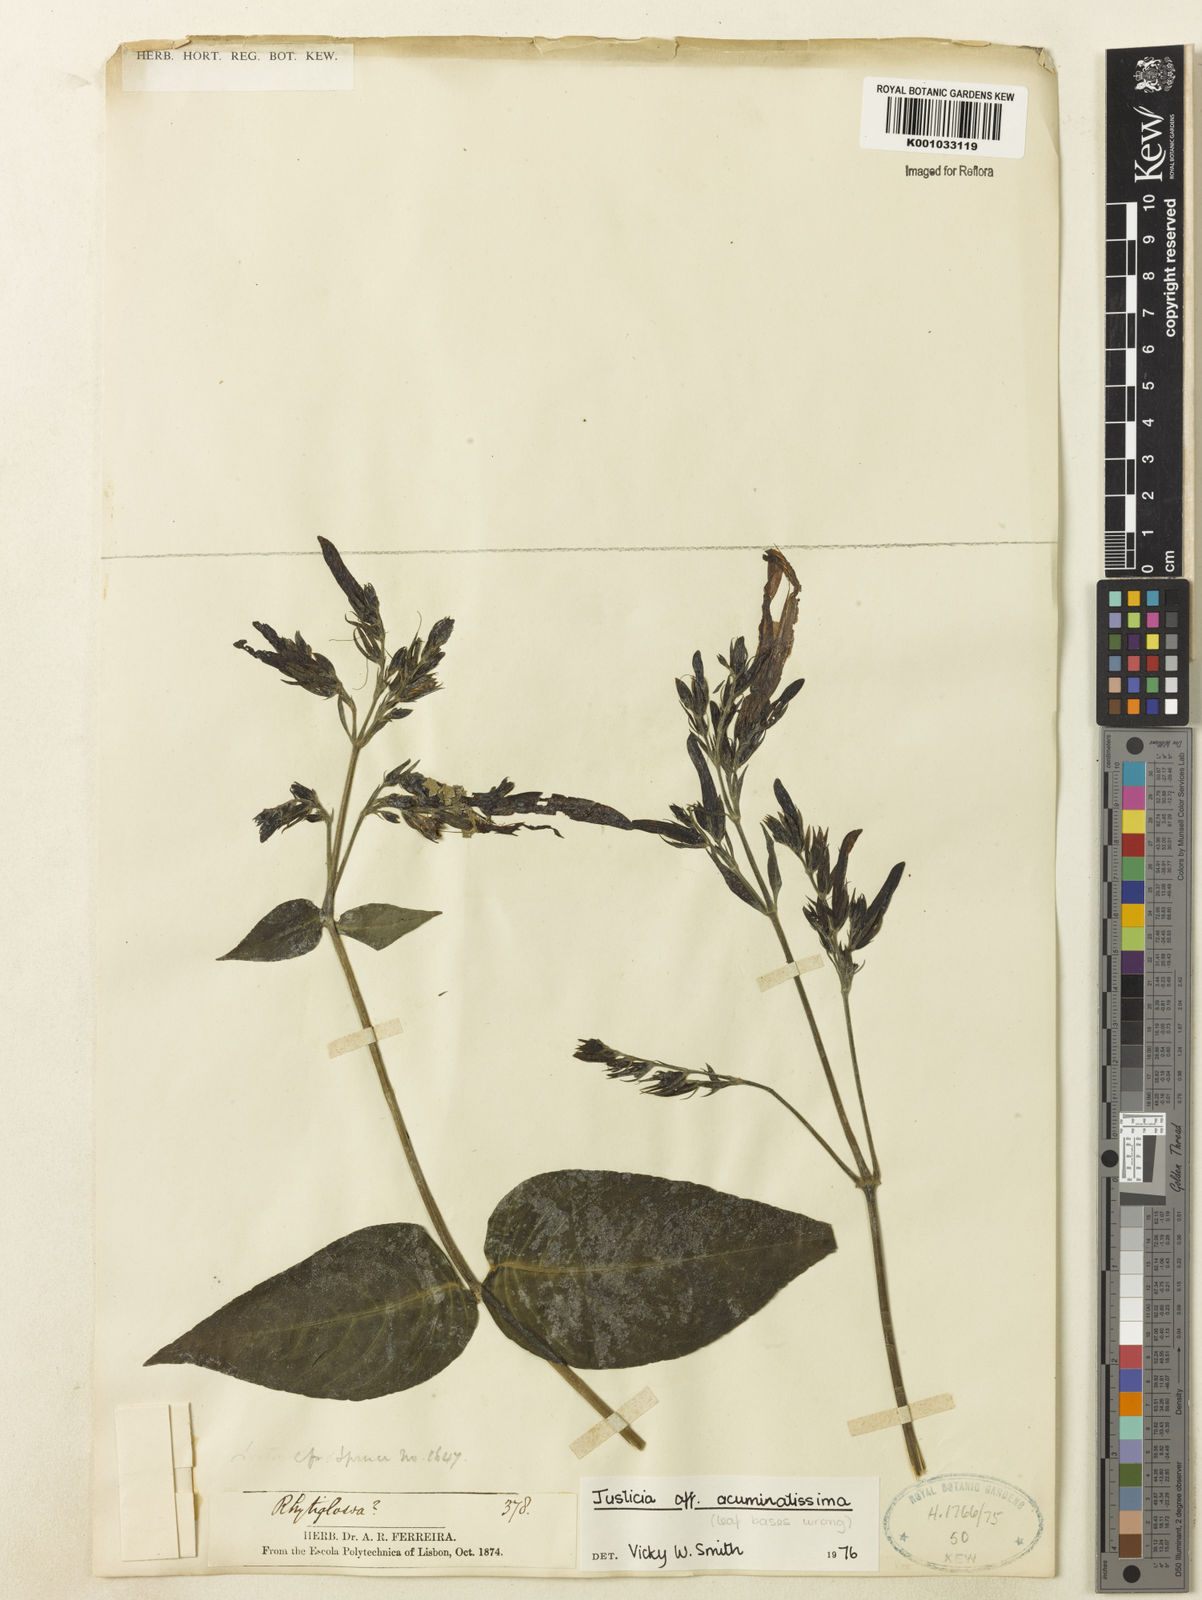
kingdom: Plantae
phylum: Tracheophyta
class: Magnoliopsida
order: Lamiales
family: Acanthaceae
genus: Dianthera
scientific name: Dianthera calycina
